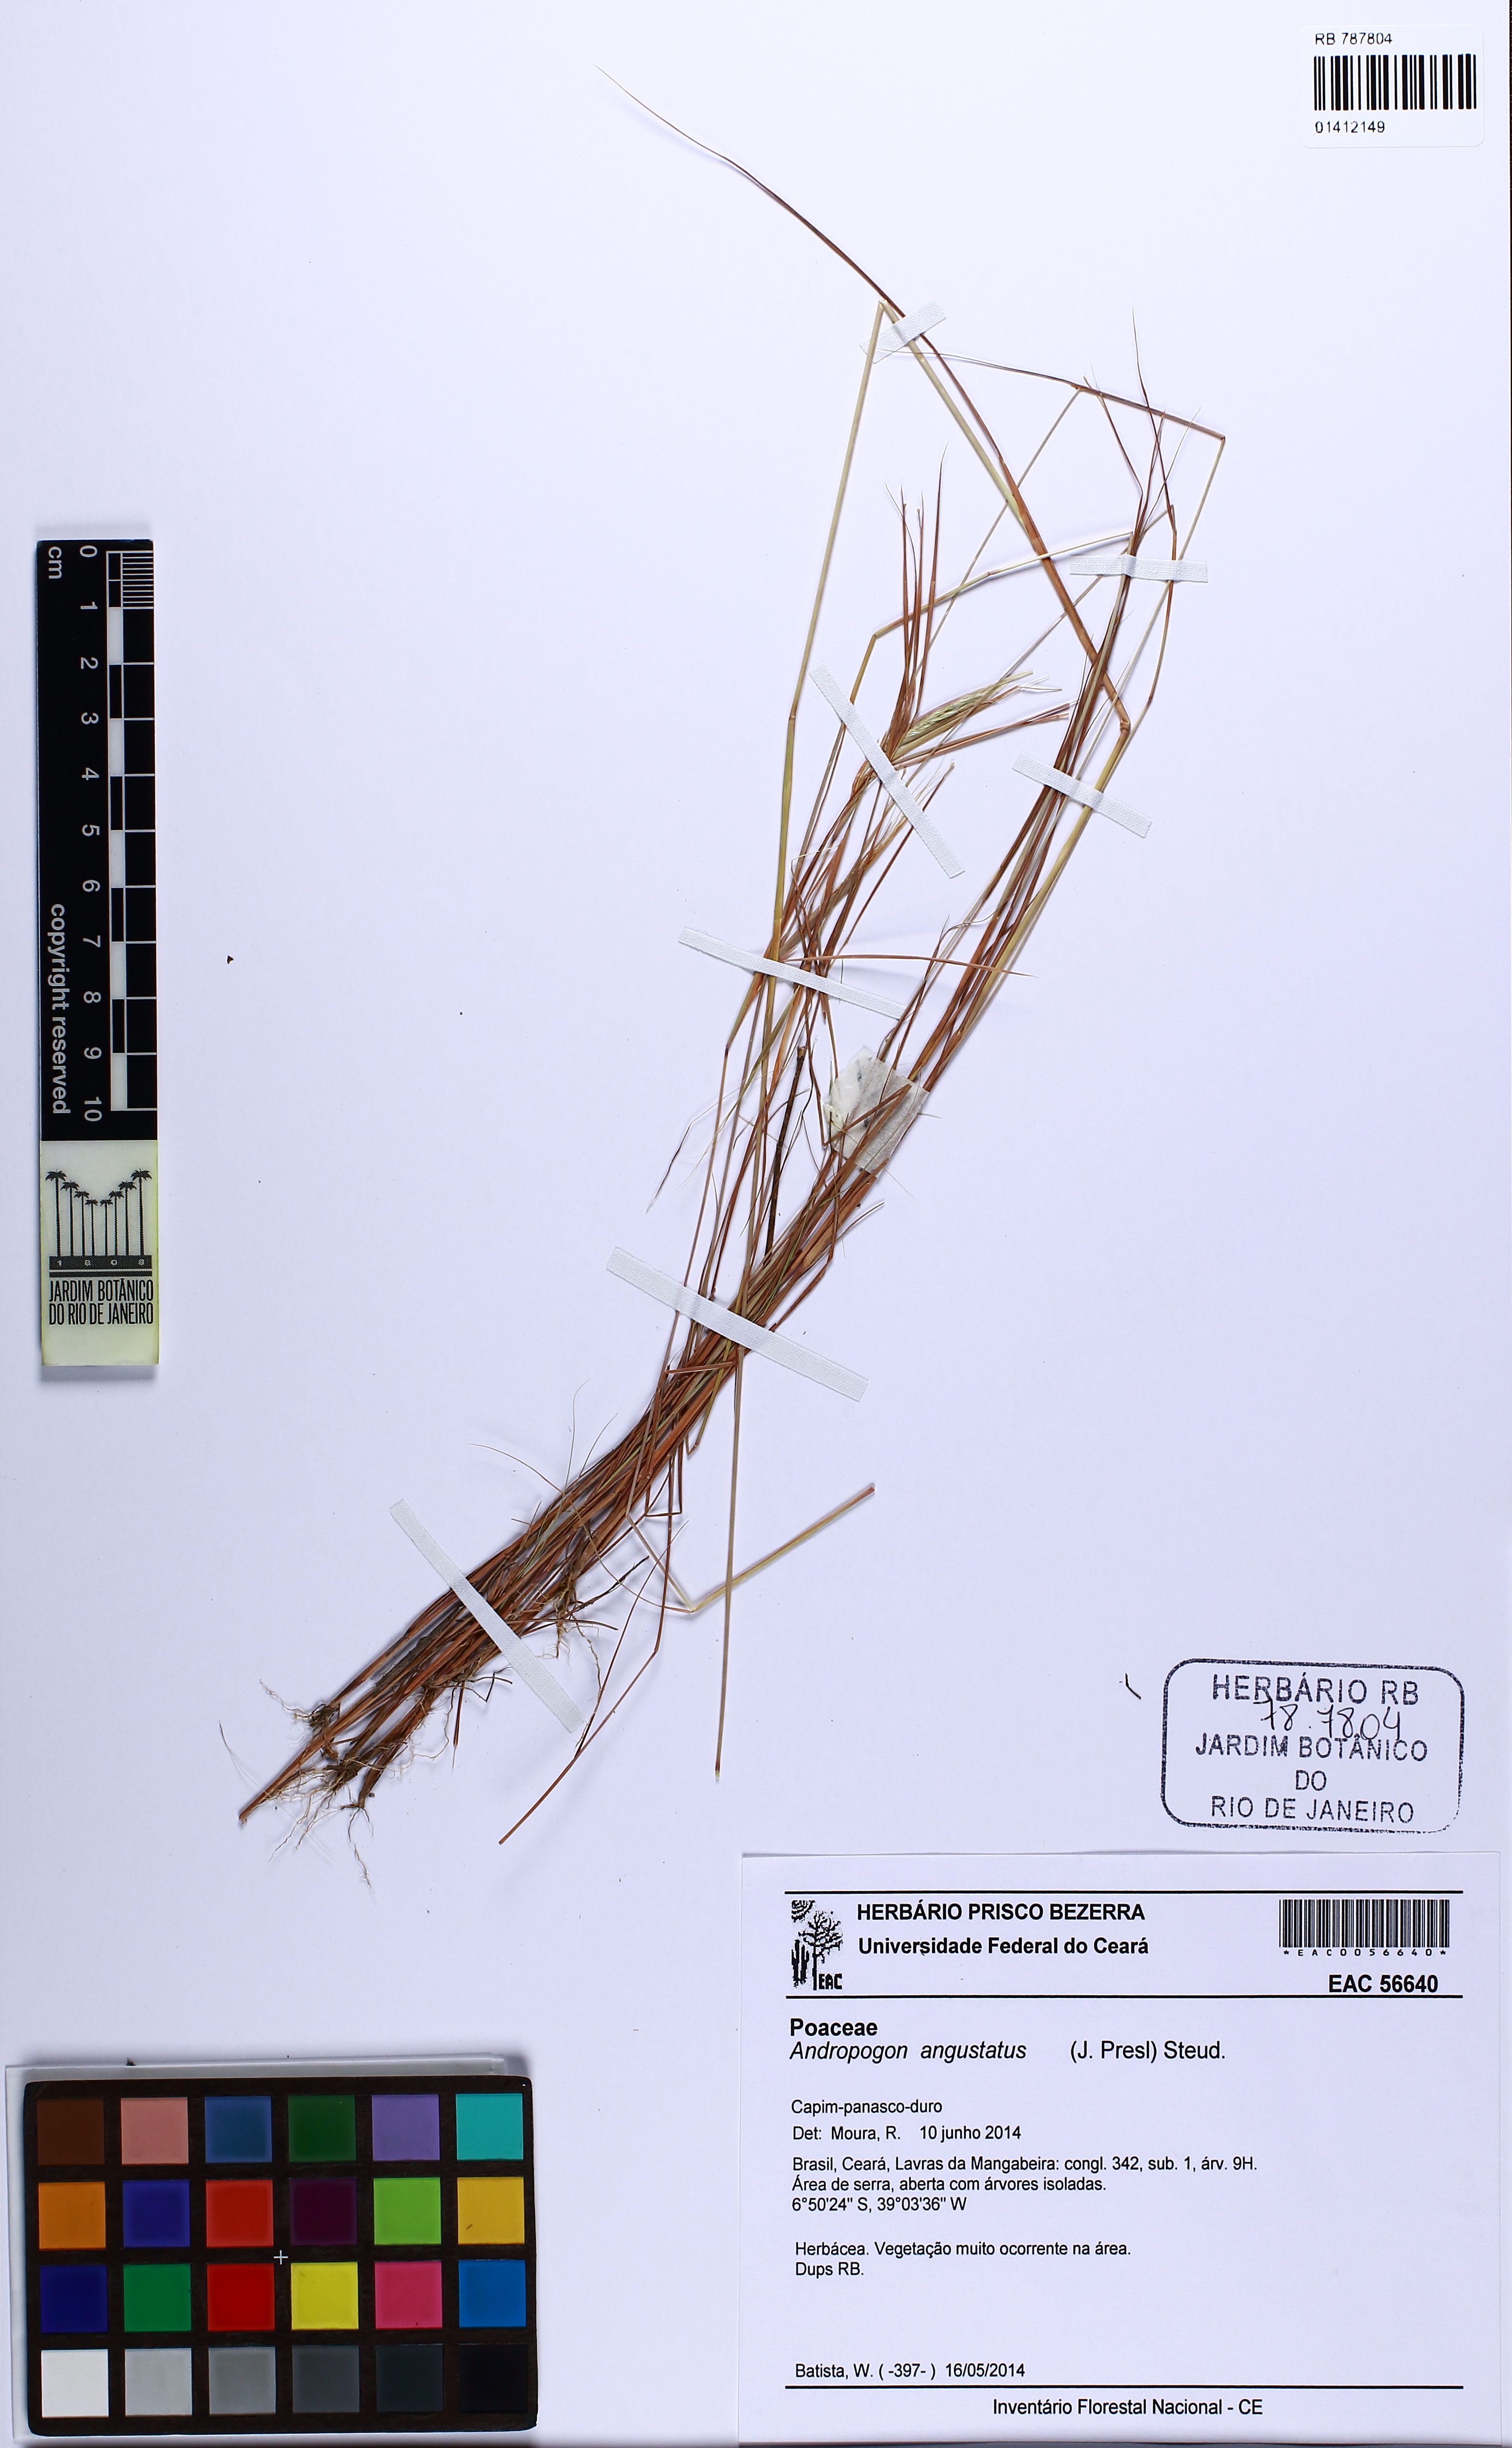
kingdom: Plantae
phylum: Tracheophyta
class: Liliopsida
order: Poales
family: Poaceae
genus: Andropogon
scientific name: Andropogon angustatus
